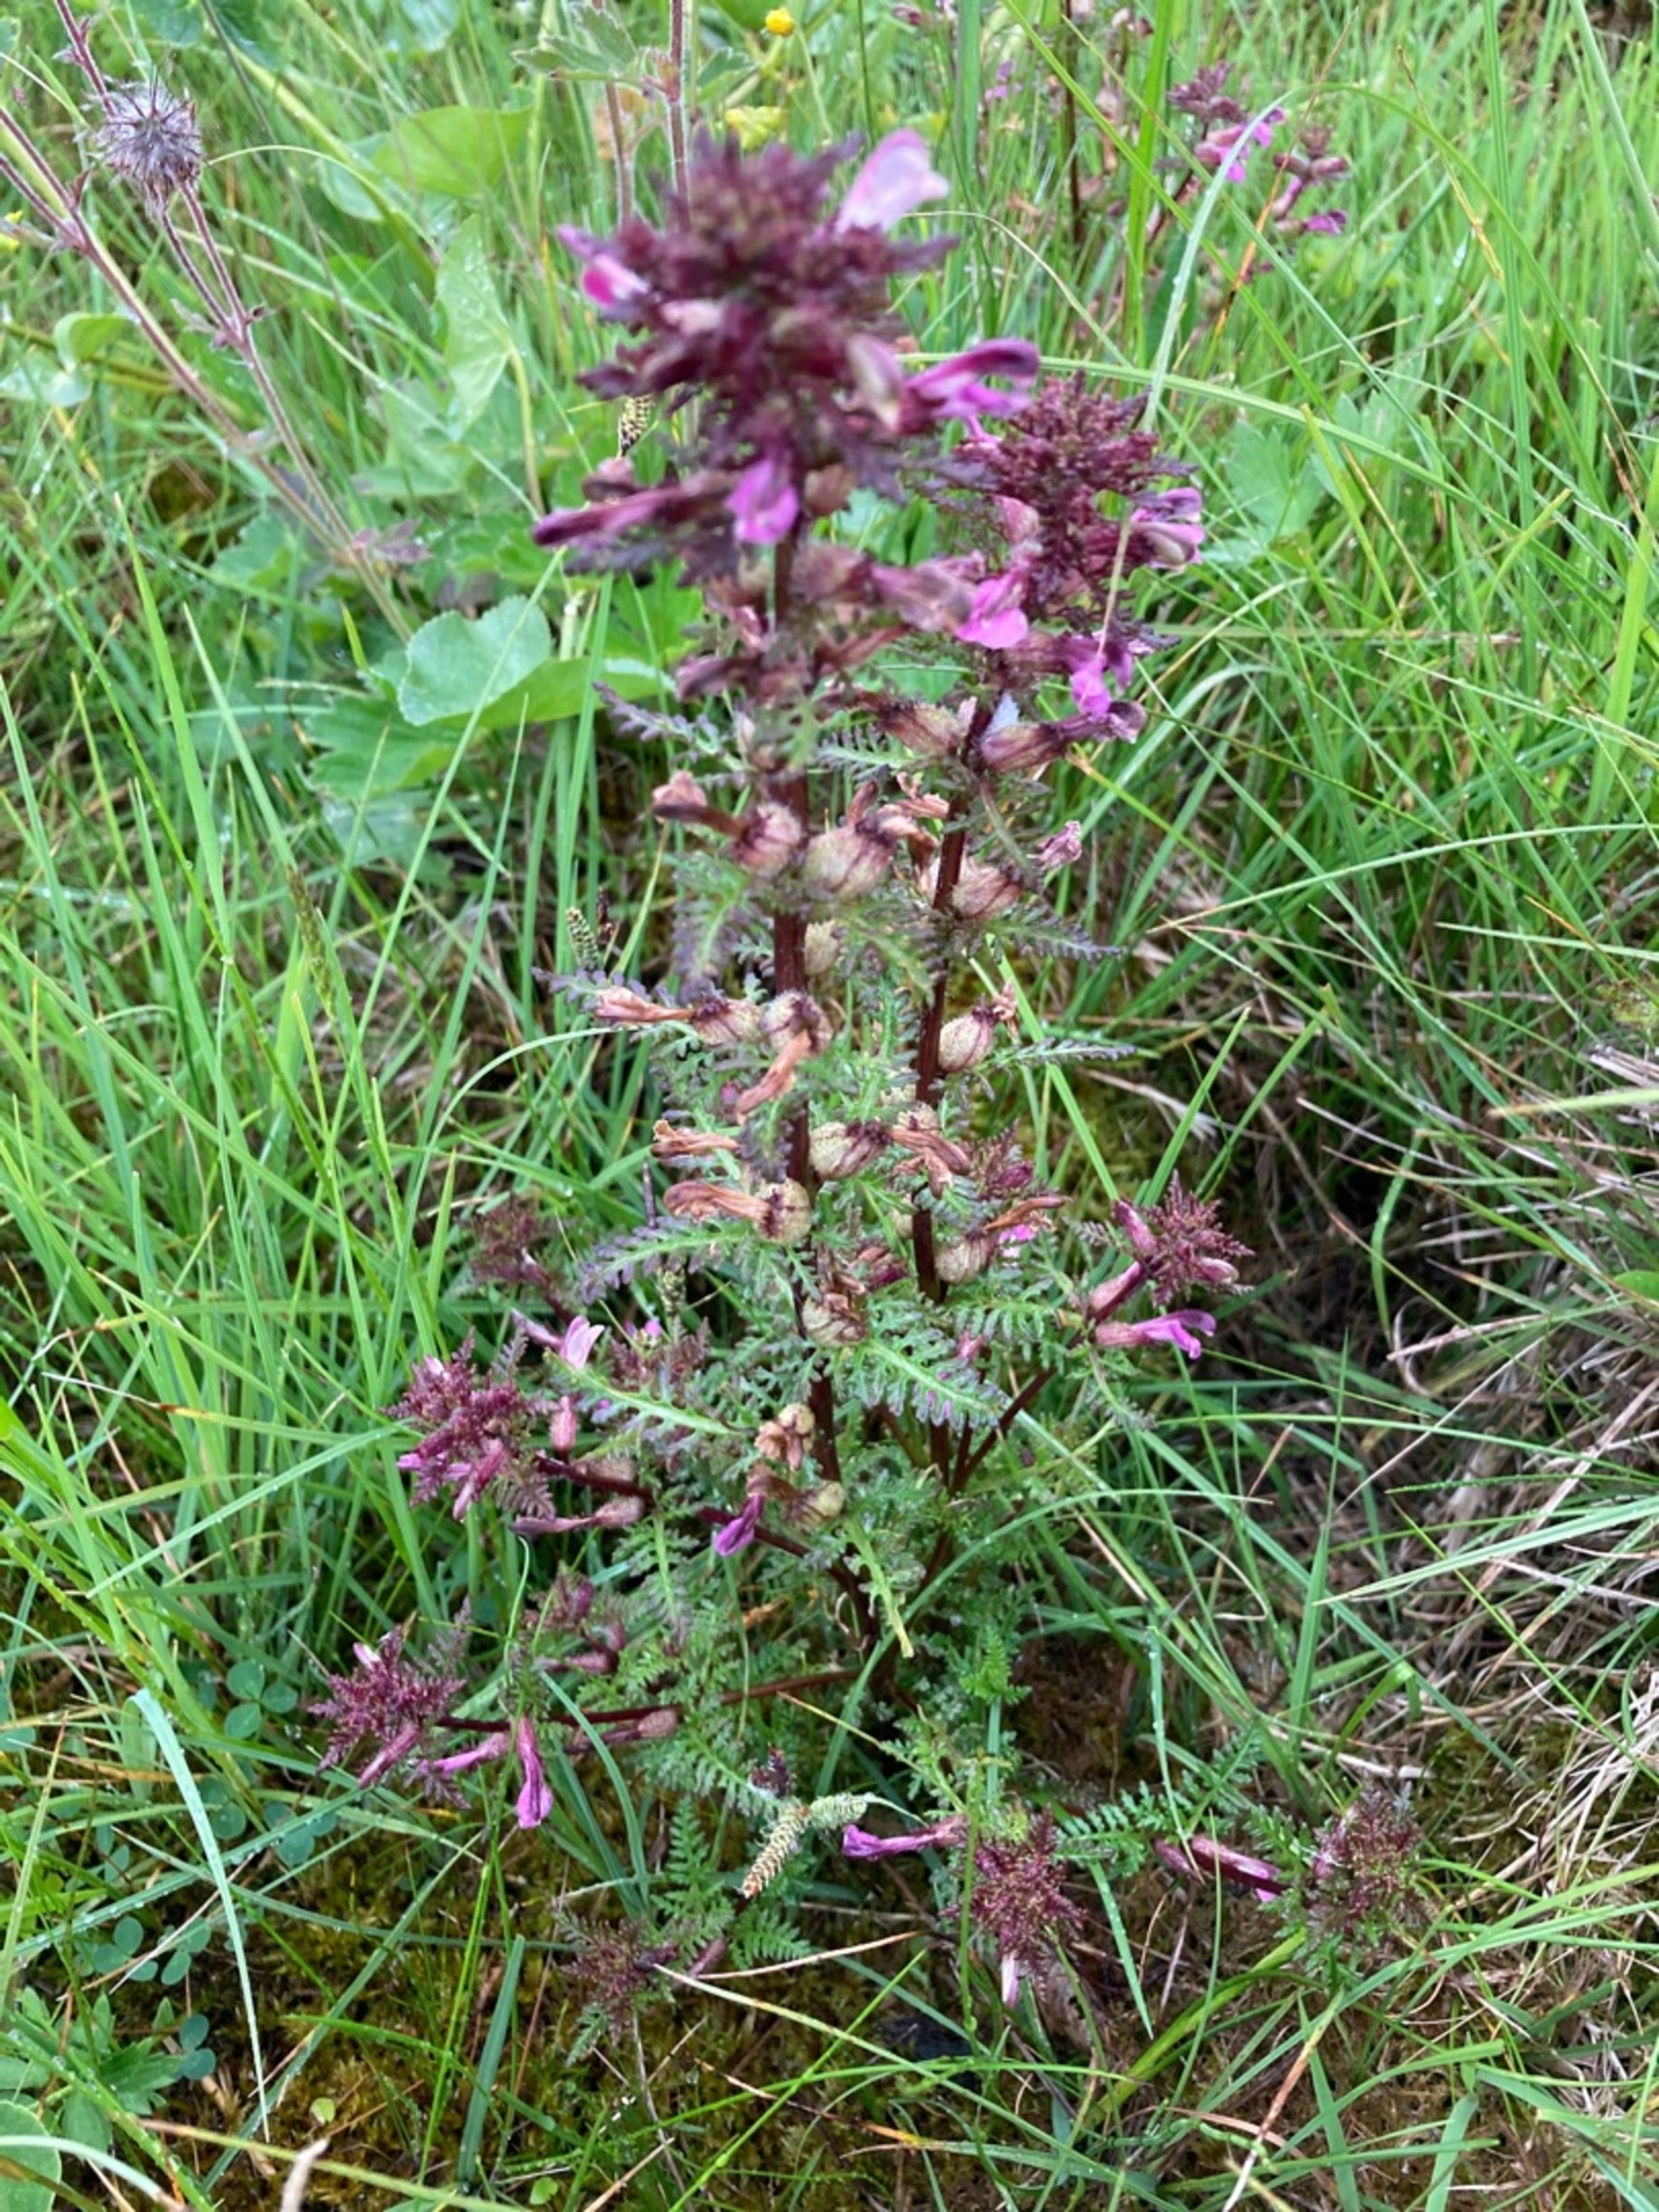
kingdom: Plantae
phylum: Tracheophyta
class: Magnoliopsida
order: Lamiales
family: Orobanchaceae
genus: Pedicularis
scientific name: Pedicularis palustris
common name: Eng-troldurt
